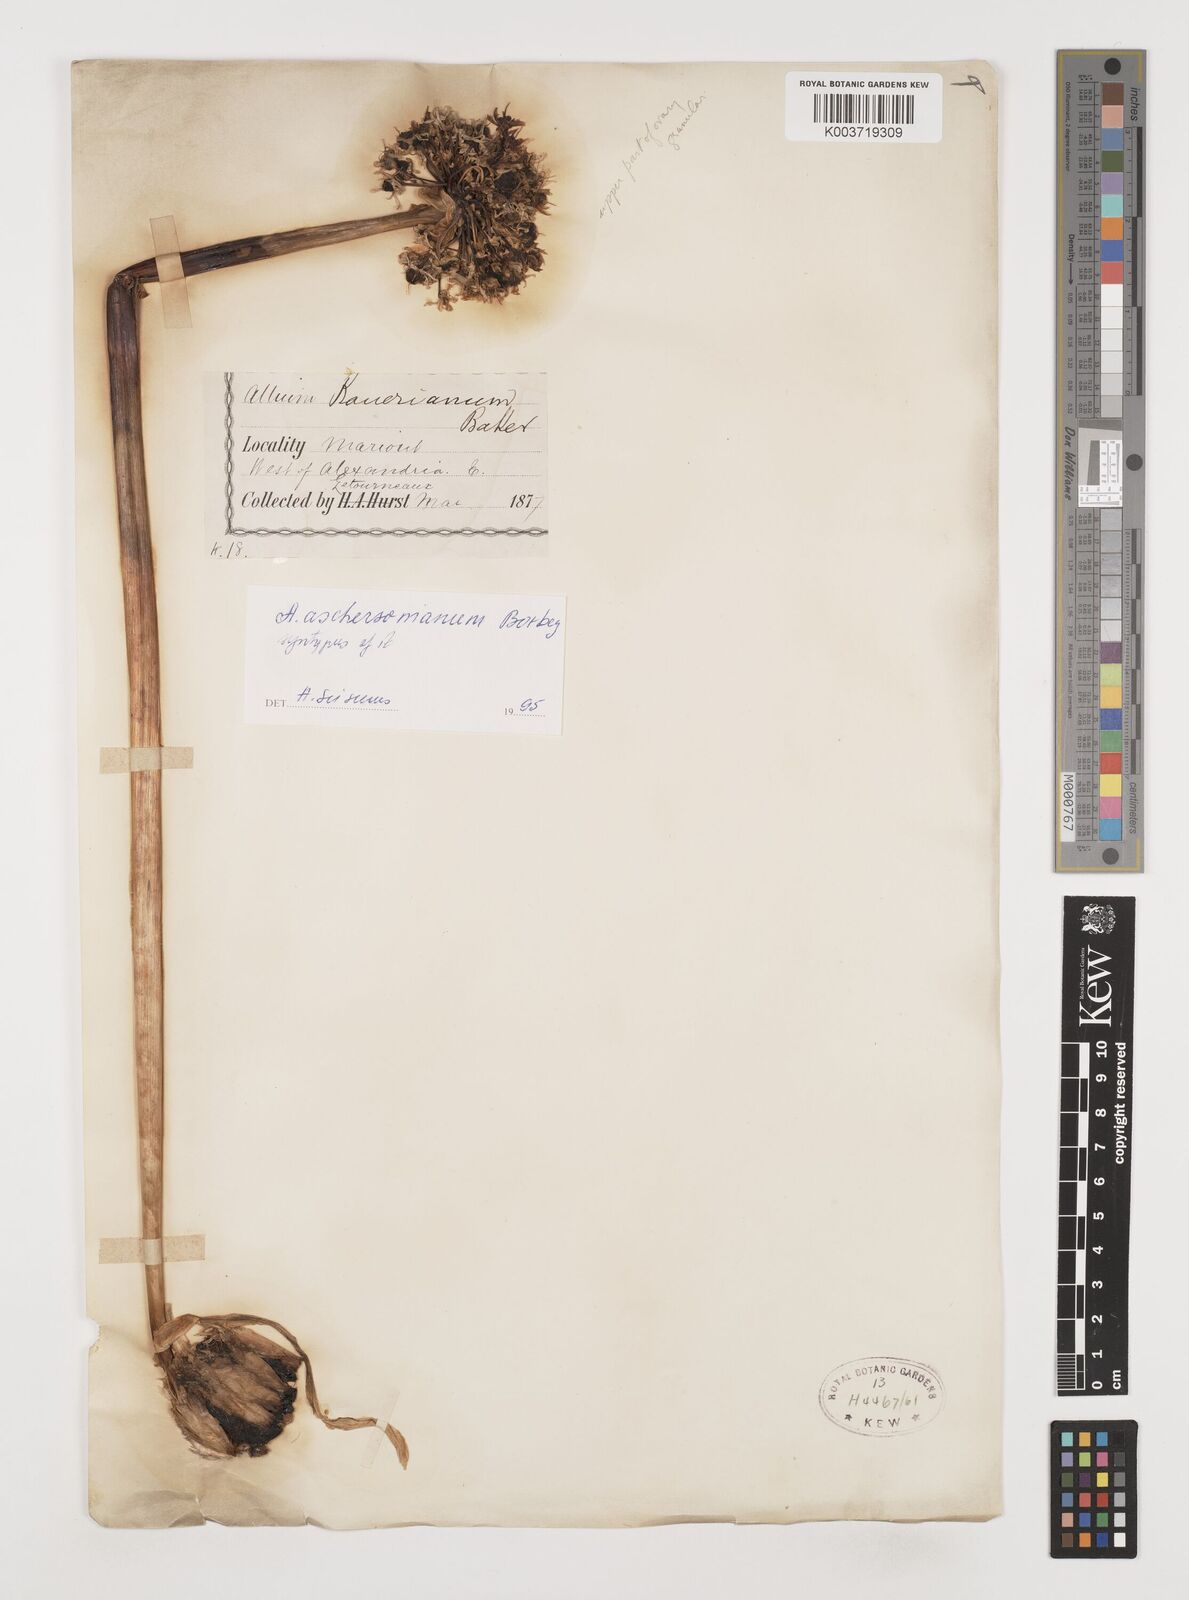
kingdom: Plantae
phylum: Tracheophyta
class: Liliopsida
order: Asparagales
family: Amaryllidaceae
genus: Allium
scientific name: Allium aschersonianum
